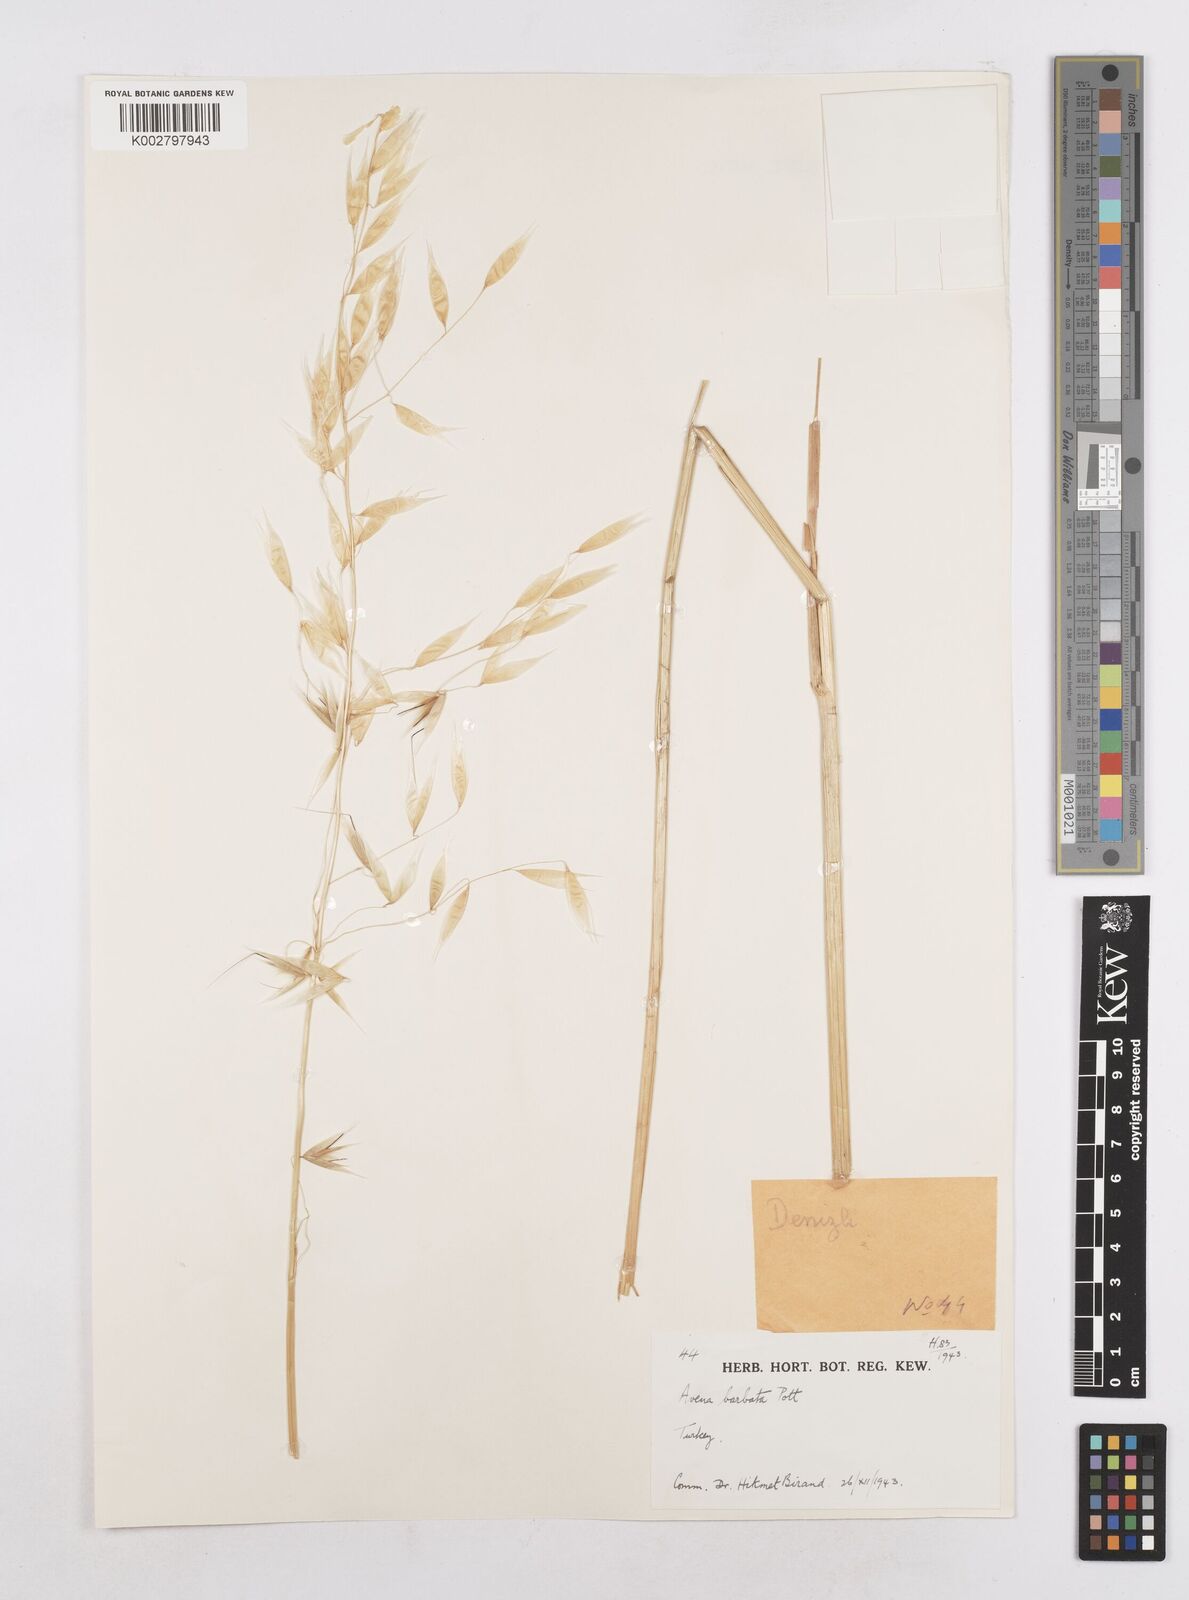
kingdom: Plantae
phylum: Tracheophyta
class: Liliopsida
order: Poales
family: Poaceae
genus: Avena
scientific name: Avena
